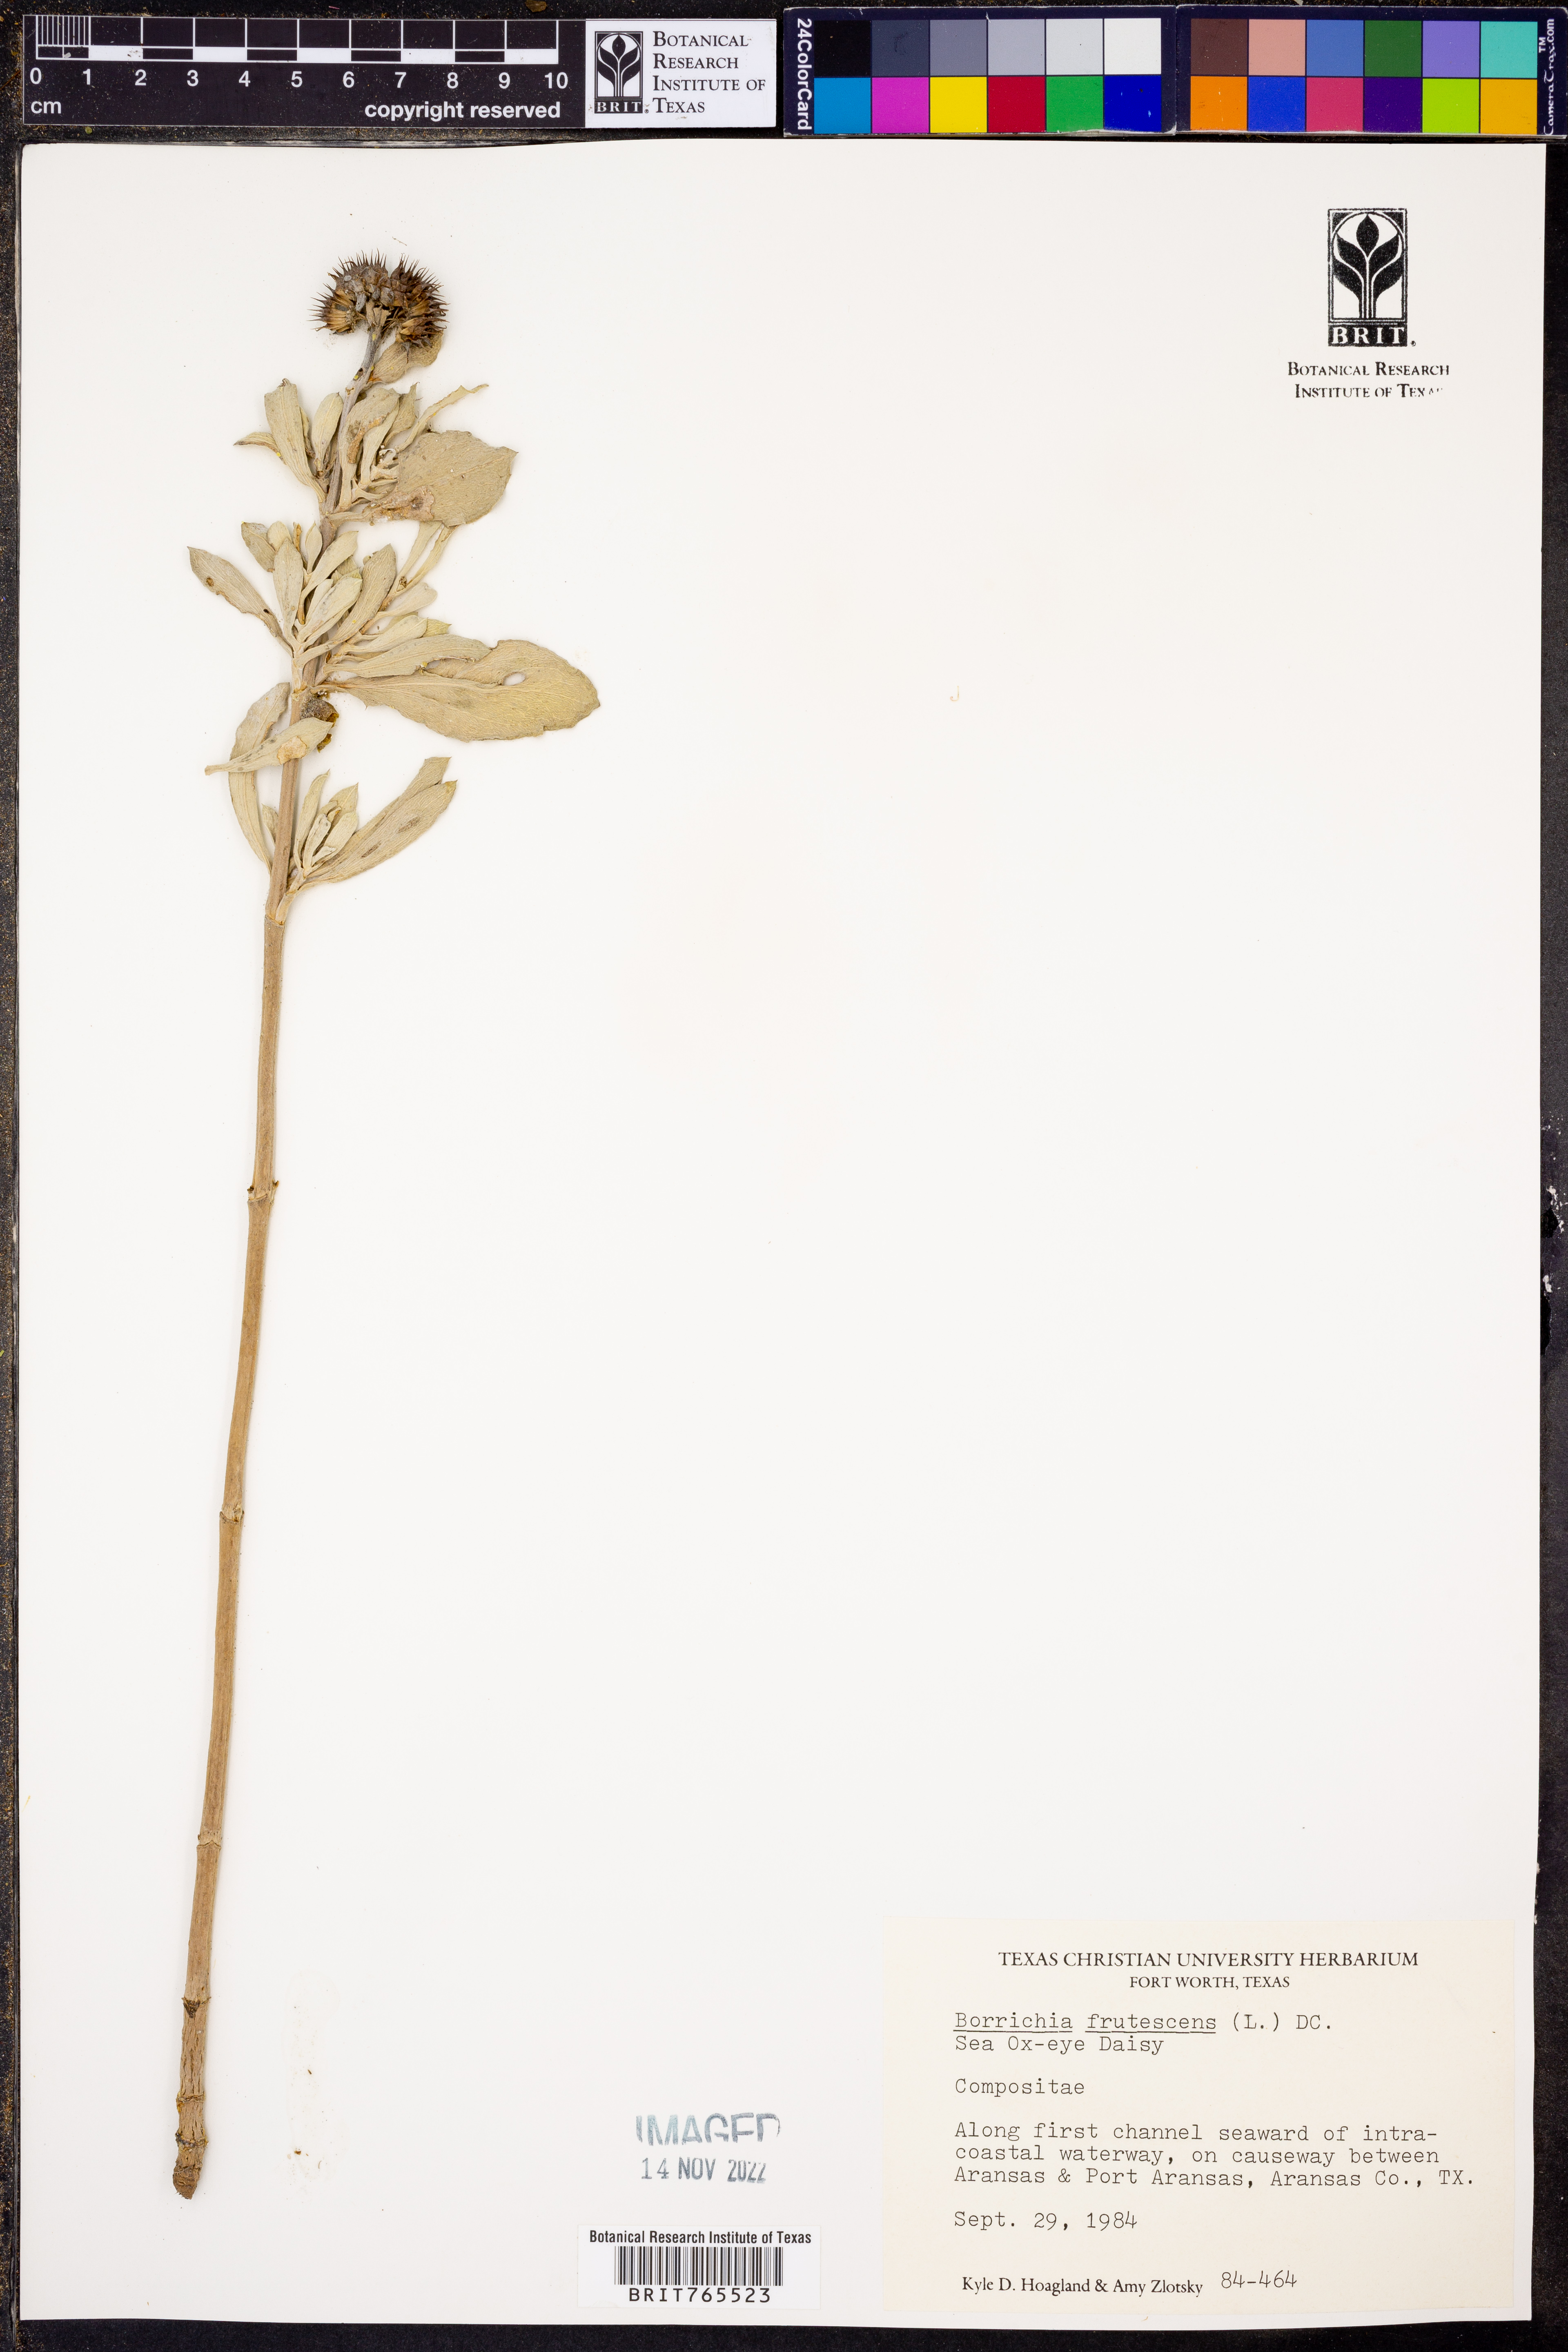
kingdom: Plantae
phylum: Tracheophyta
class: Magnoliopsida
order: Asterales
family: Asteraceae
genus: Borrichia
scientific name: Borrichia frutescens
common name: Sea oxeye
